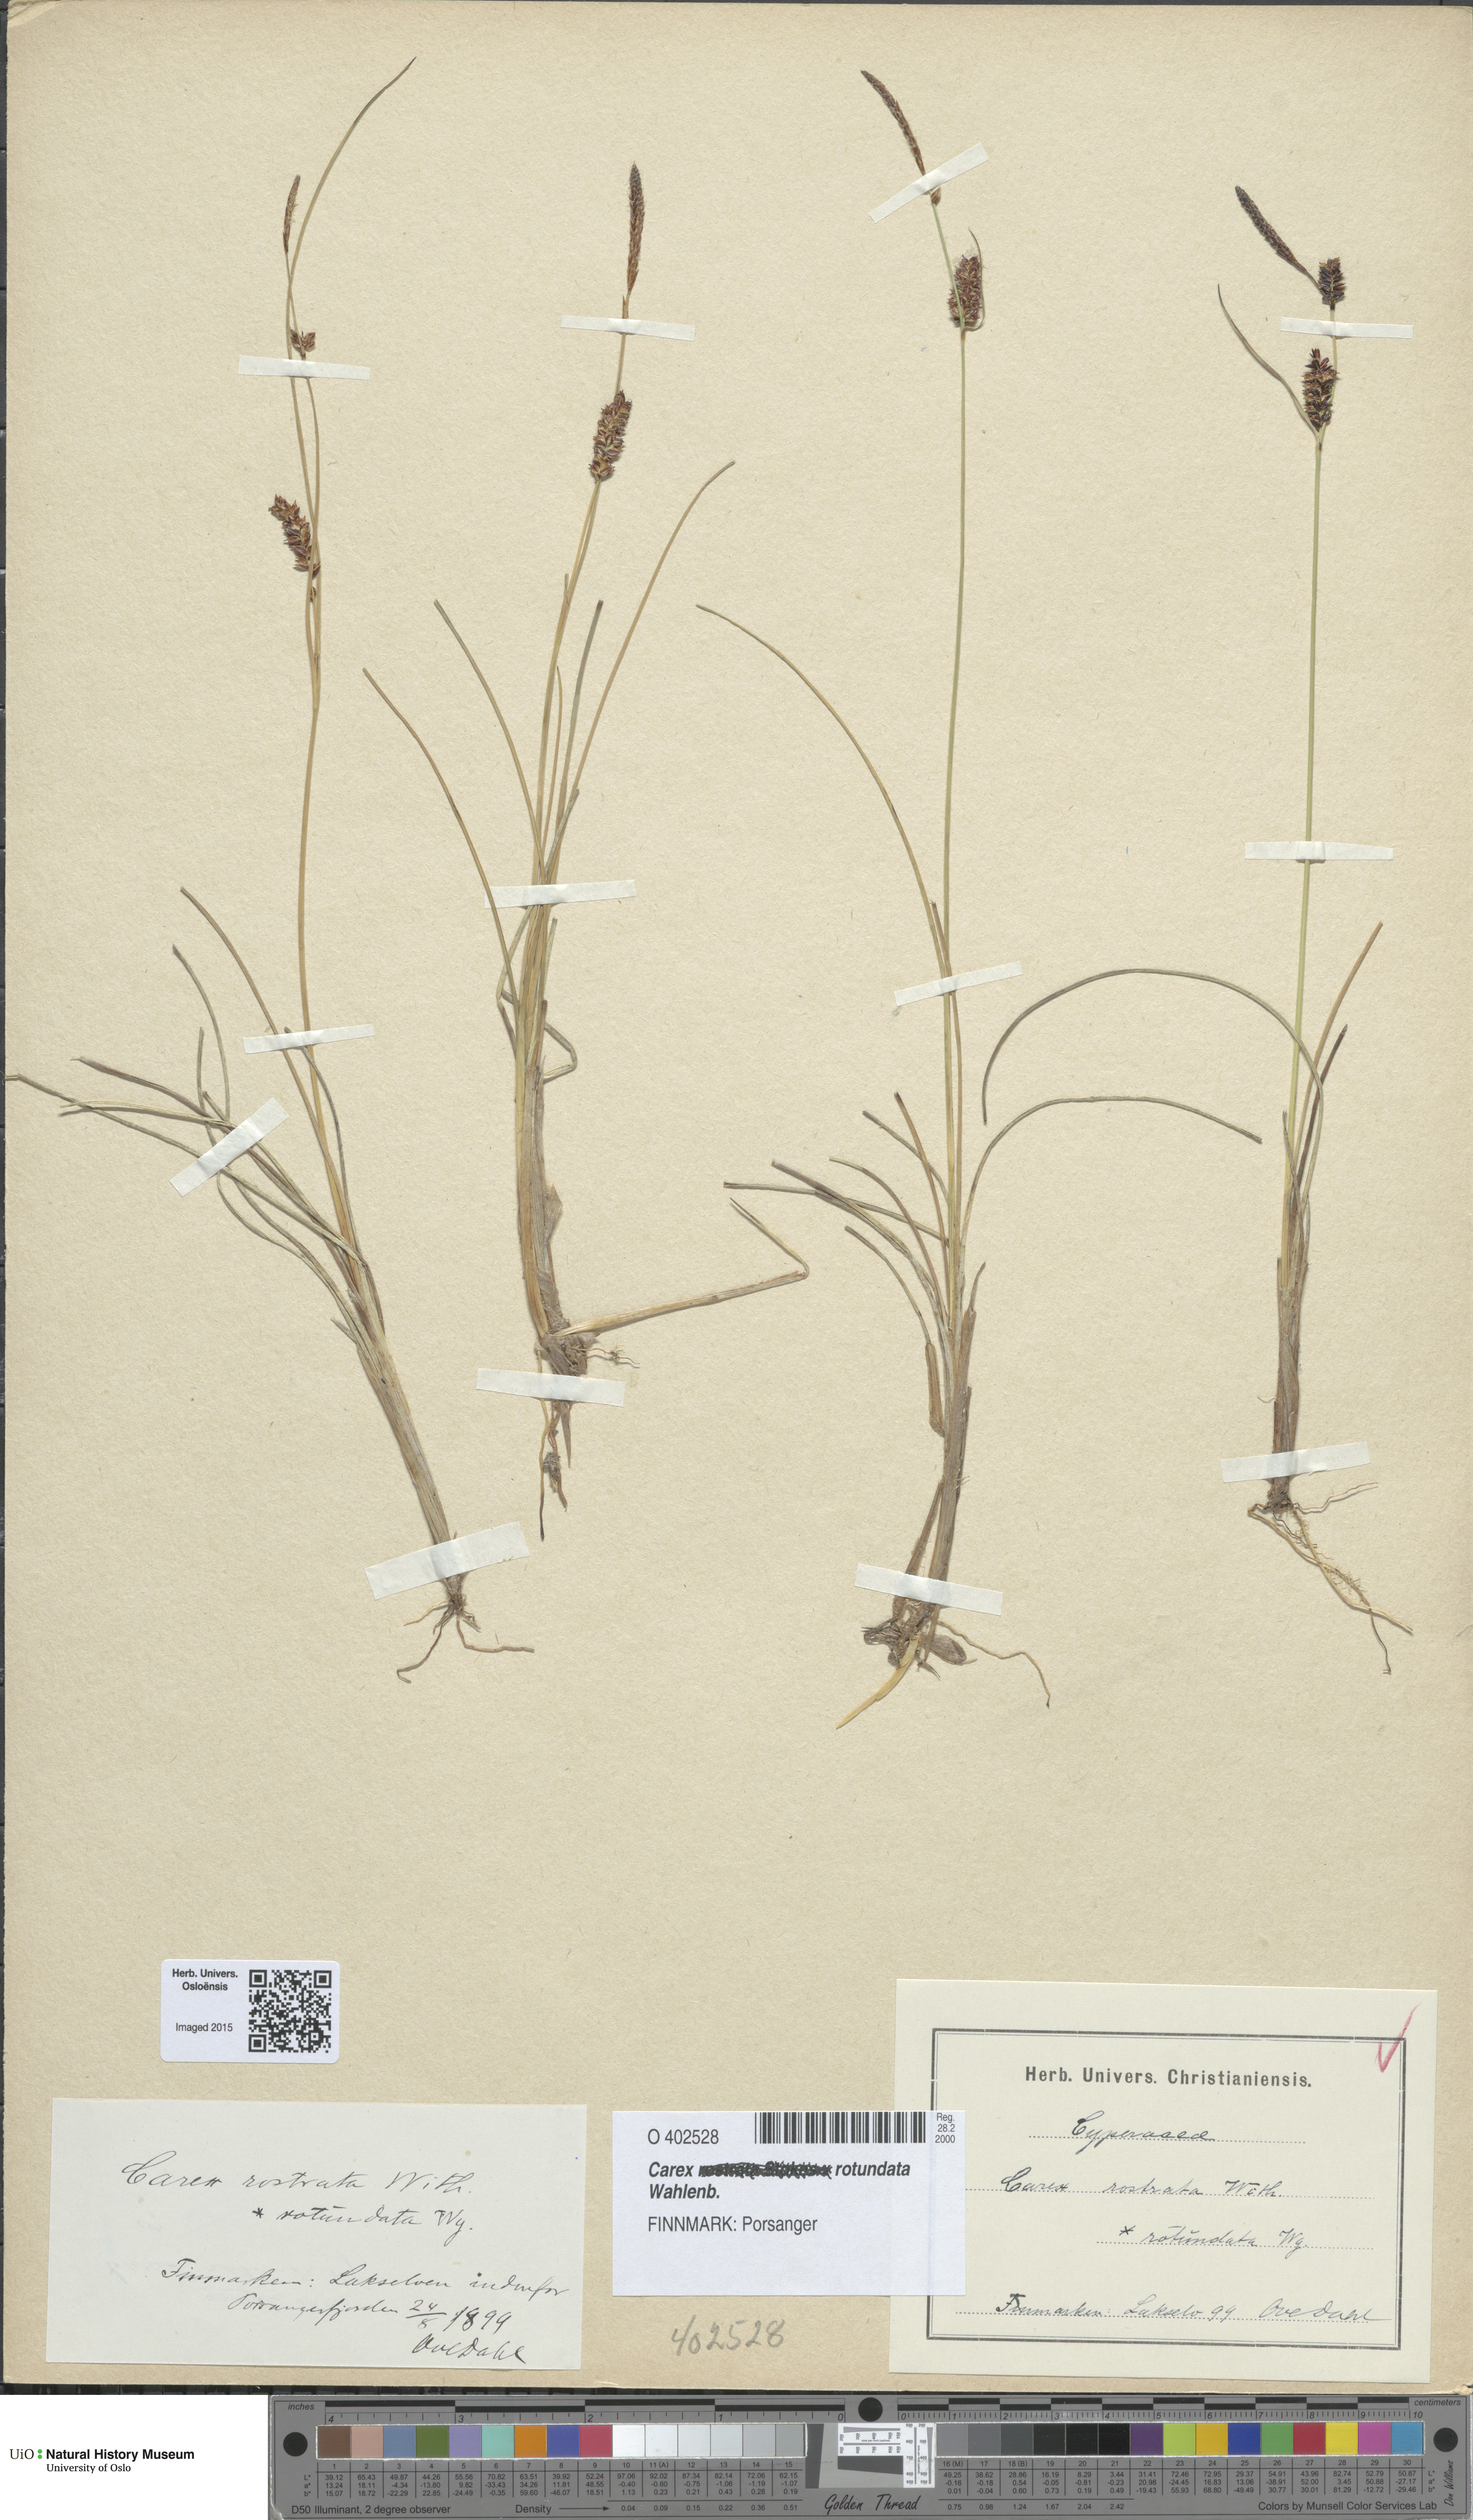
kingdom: Plantae
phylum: Tracheophyta
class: Liliopsida
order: Poales
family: Cyperaceae
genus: Carex
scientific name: Carex rotundata
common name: Round-fruited sedge
